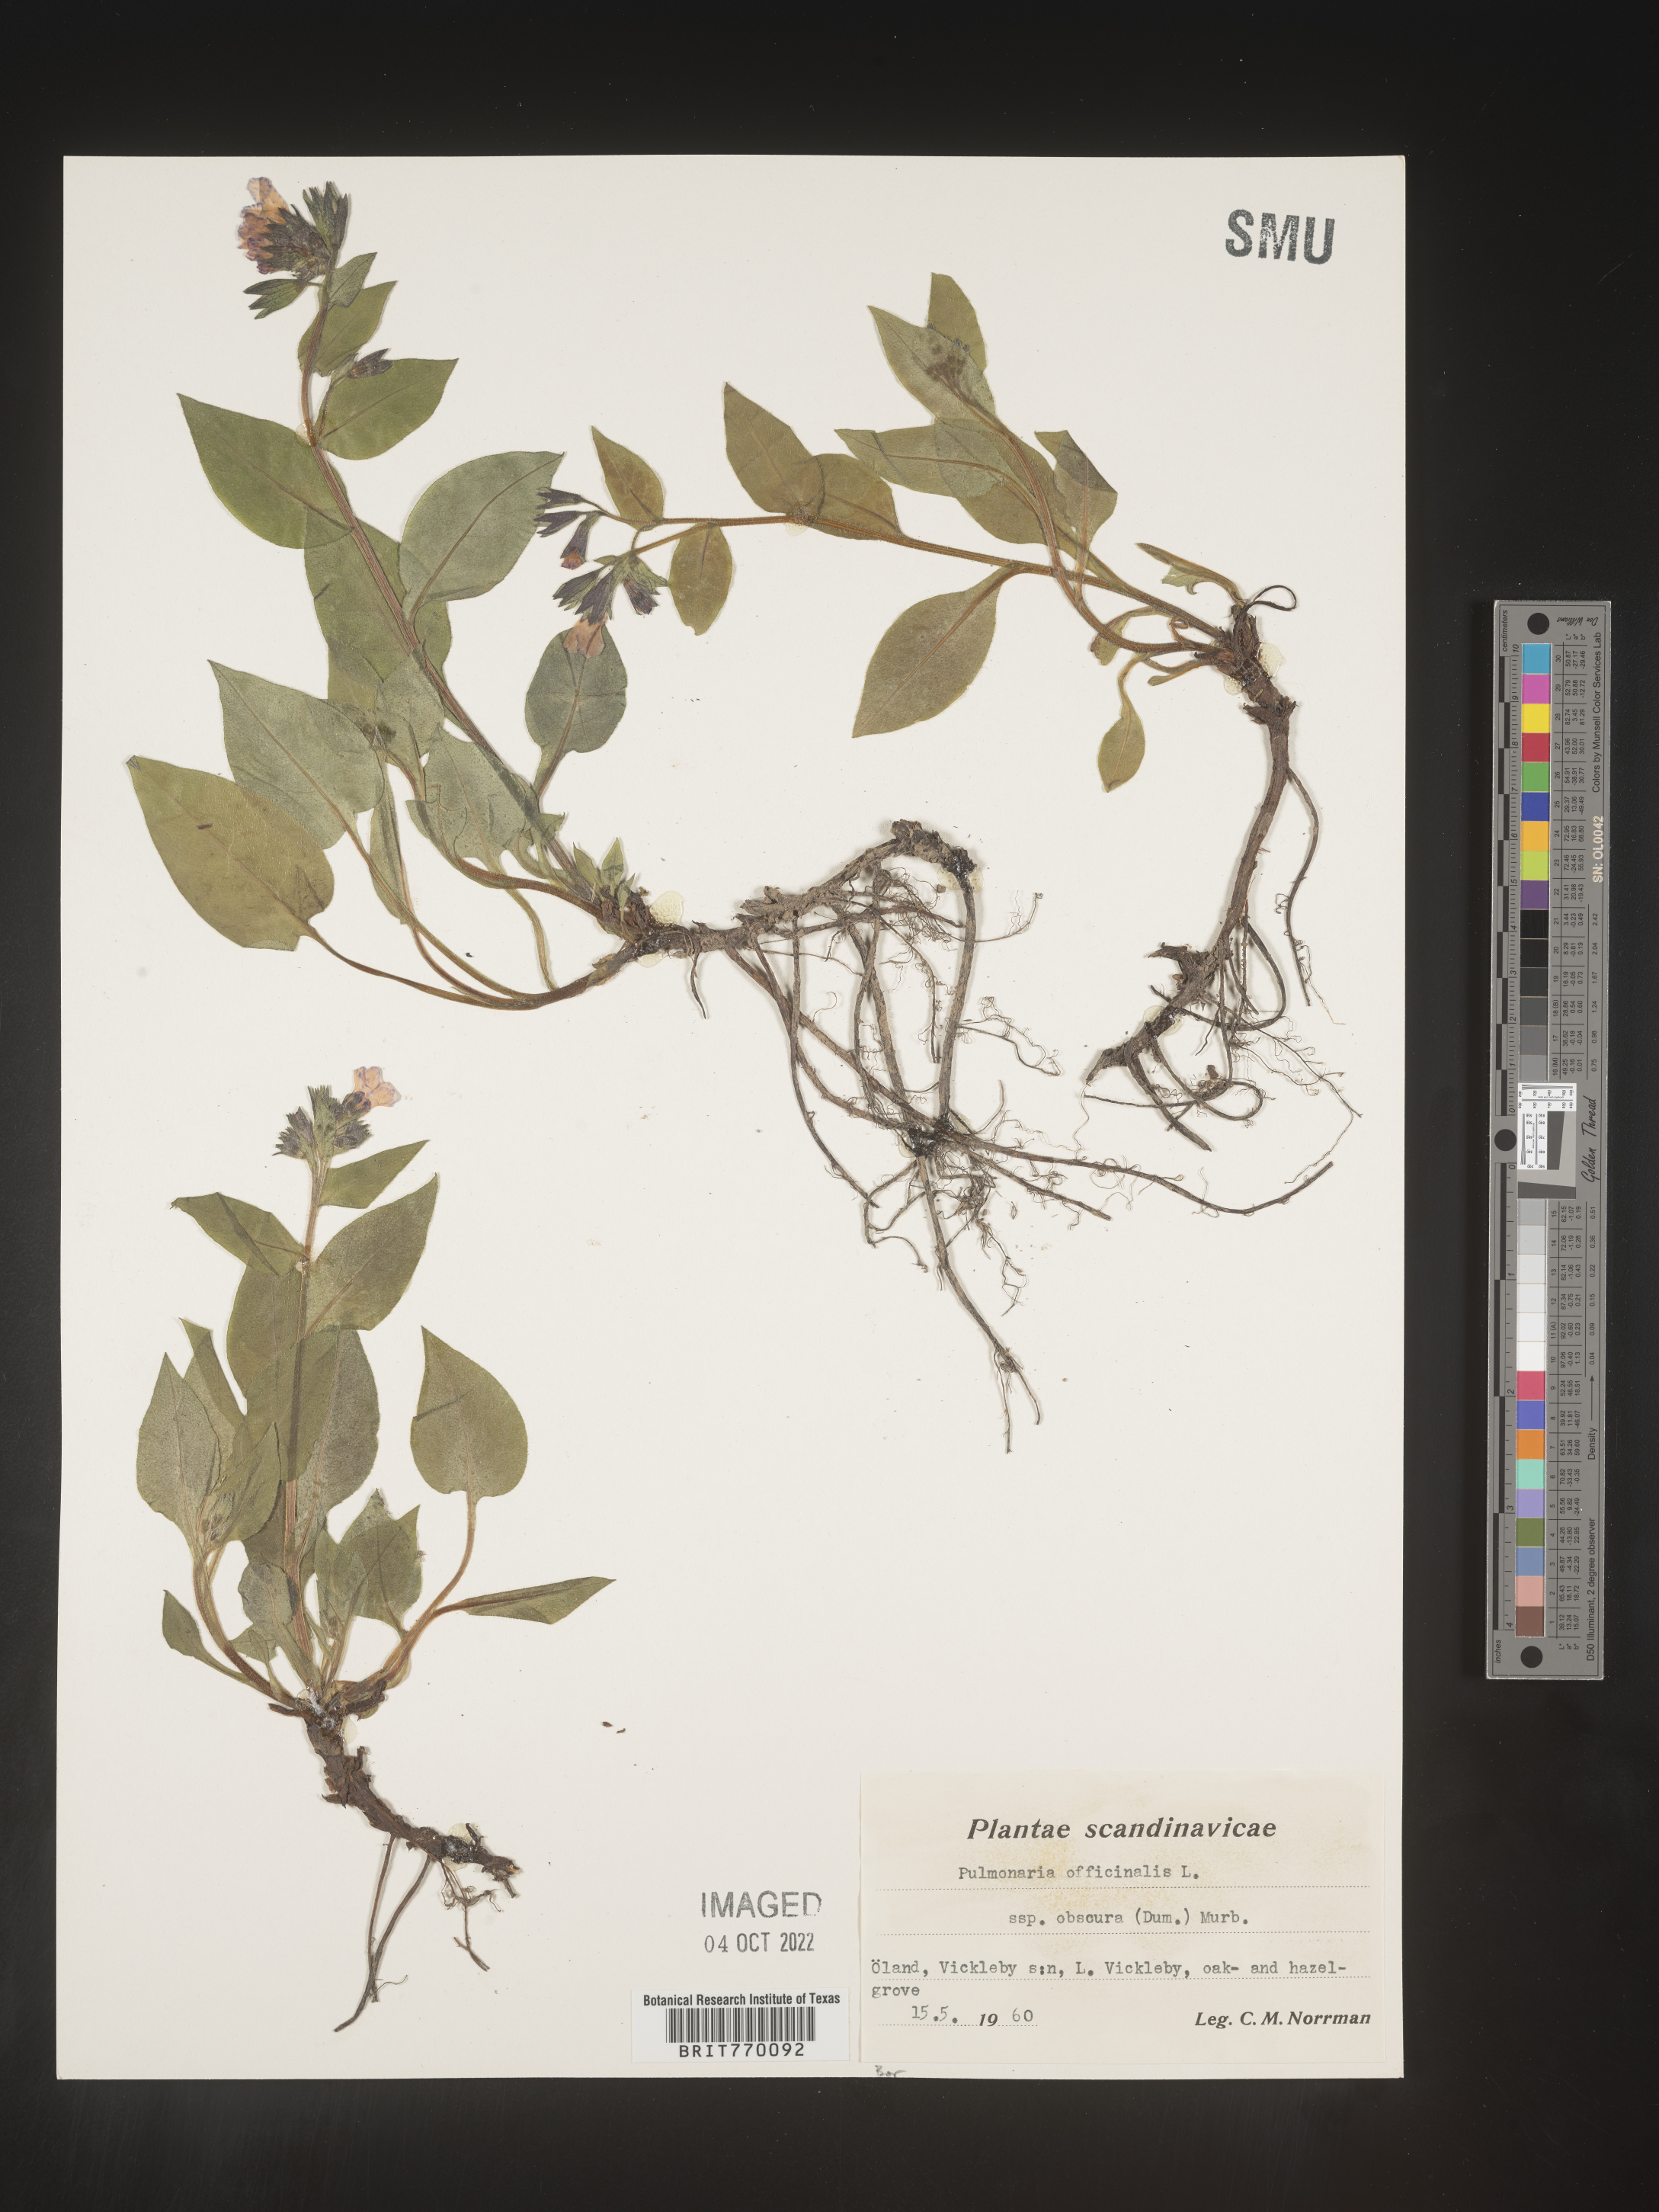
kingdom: Plantae
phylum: Tracheophyta
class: Magnoliopsida
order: Boraginales
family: Boraginaceae
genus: Pulmonaria
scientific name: Pulmonaria
